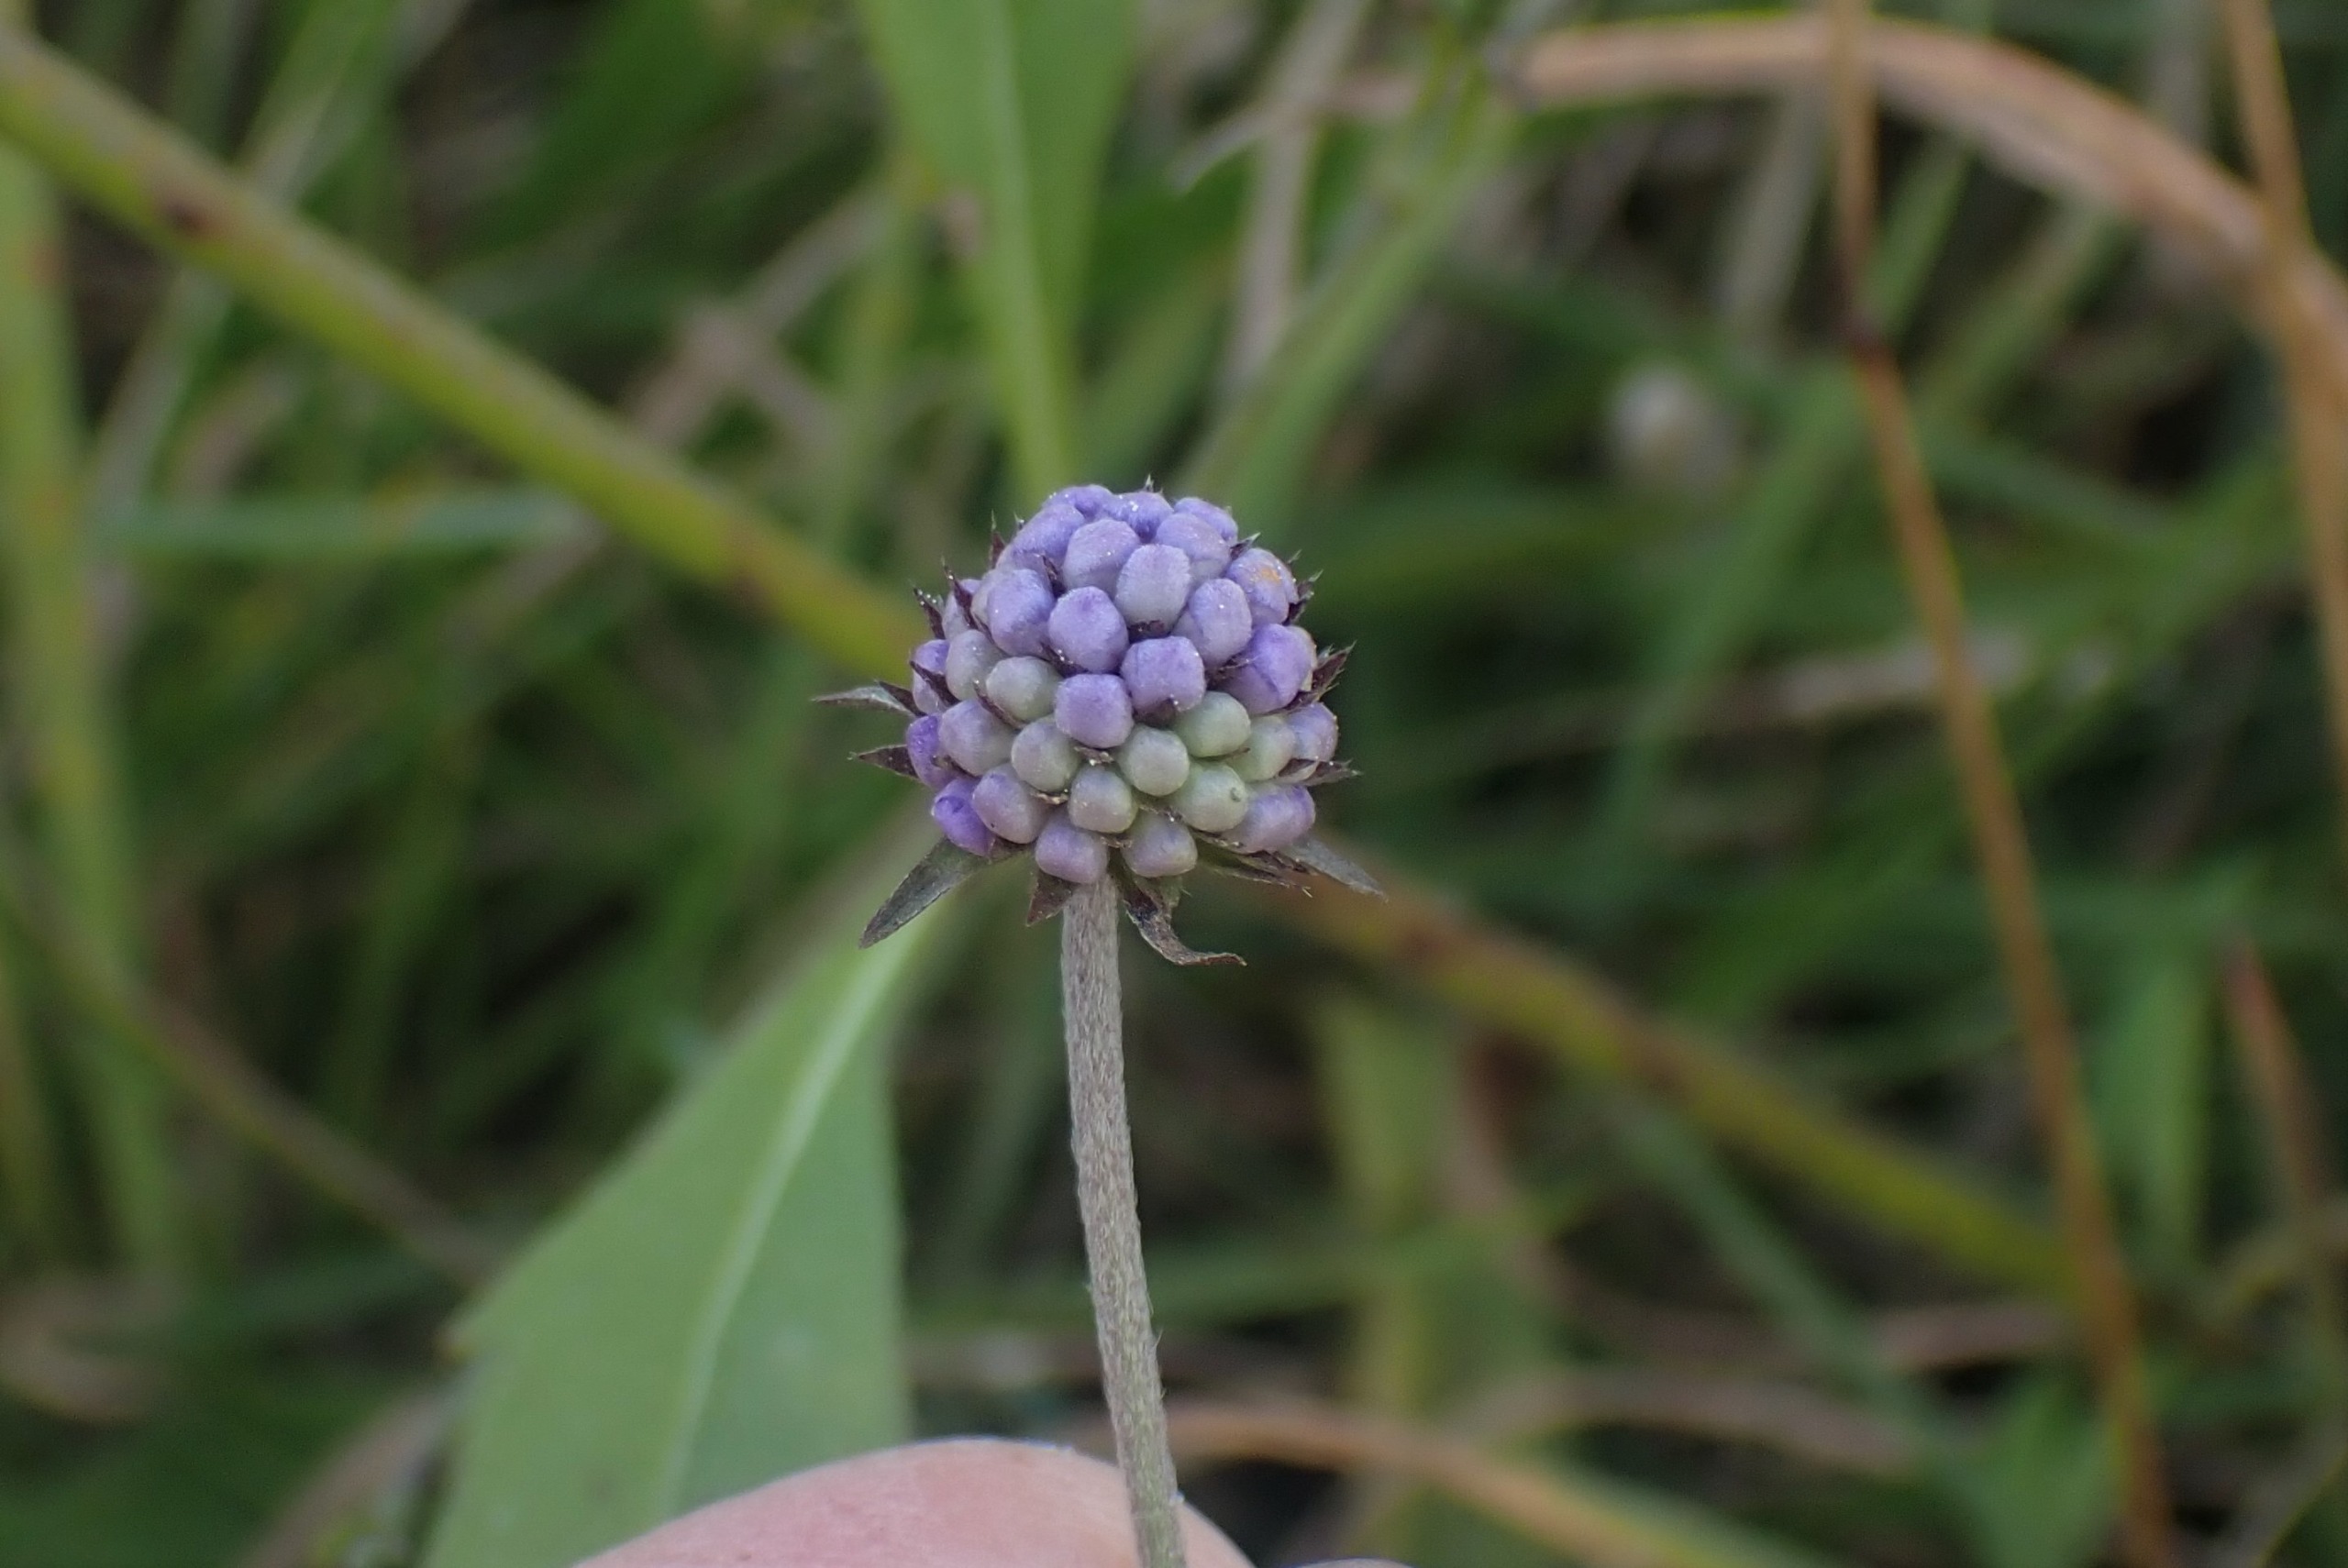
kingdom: Plantae
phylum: Tracheophyta
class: Magnoliopsida
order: Dipsacales
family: Caprifoliaceae
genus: Succisa
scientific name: Succisa pratensis
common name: Djævelsbid
